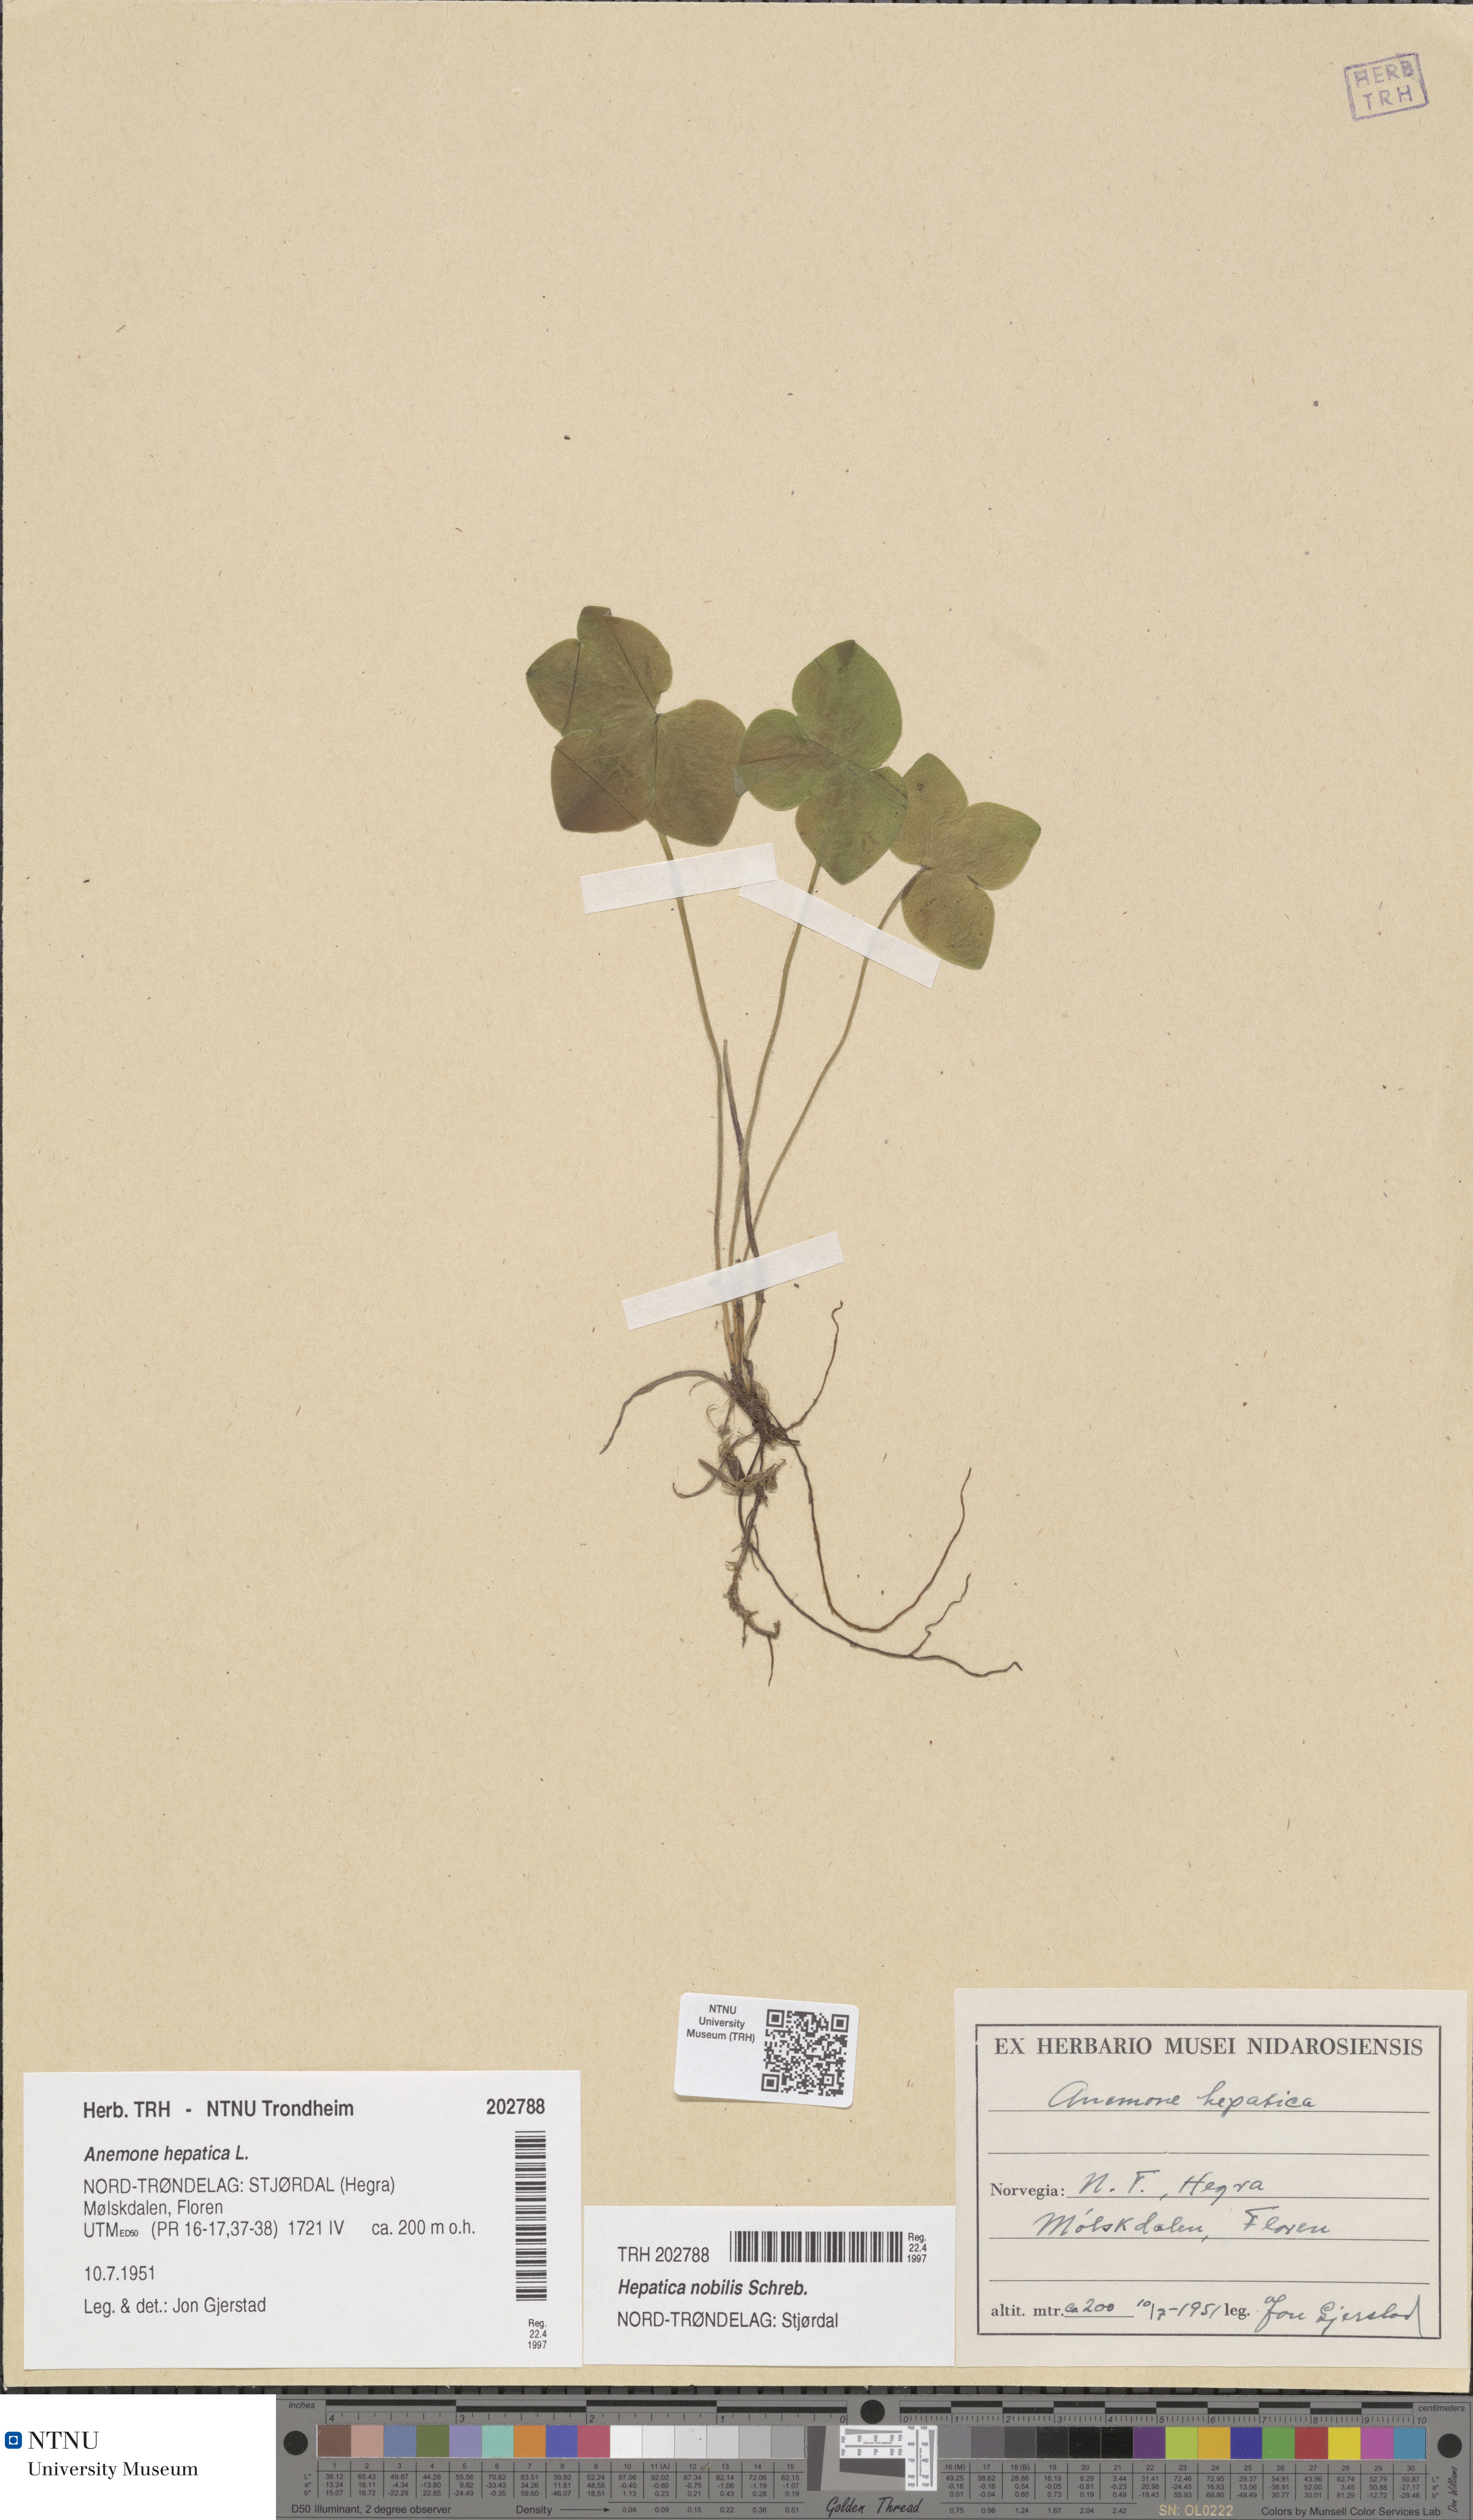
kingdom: Plantae
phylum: Tracheophyta
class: Magnoliopsida
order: Ranunculales
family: Ranunculaceae
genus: Hepatica
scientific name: Hepatica nobilis
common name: Liverleaf
